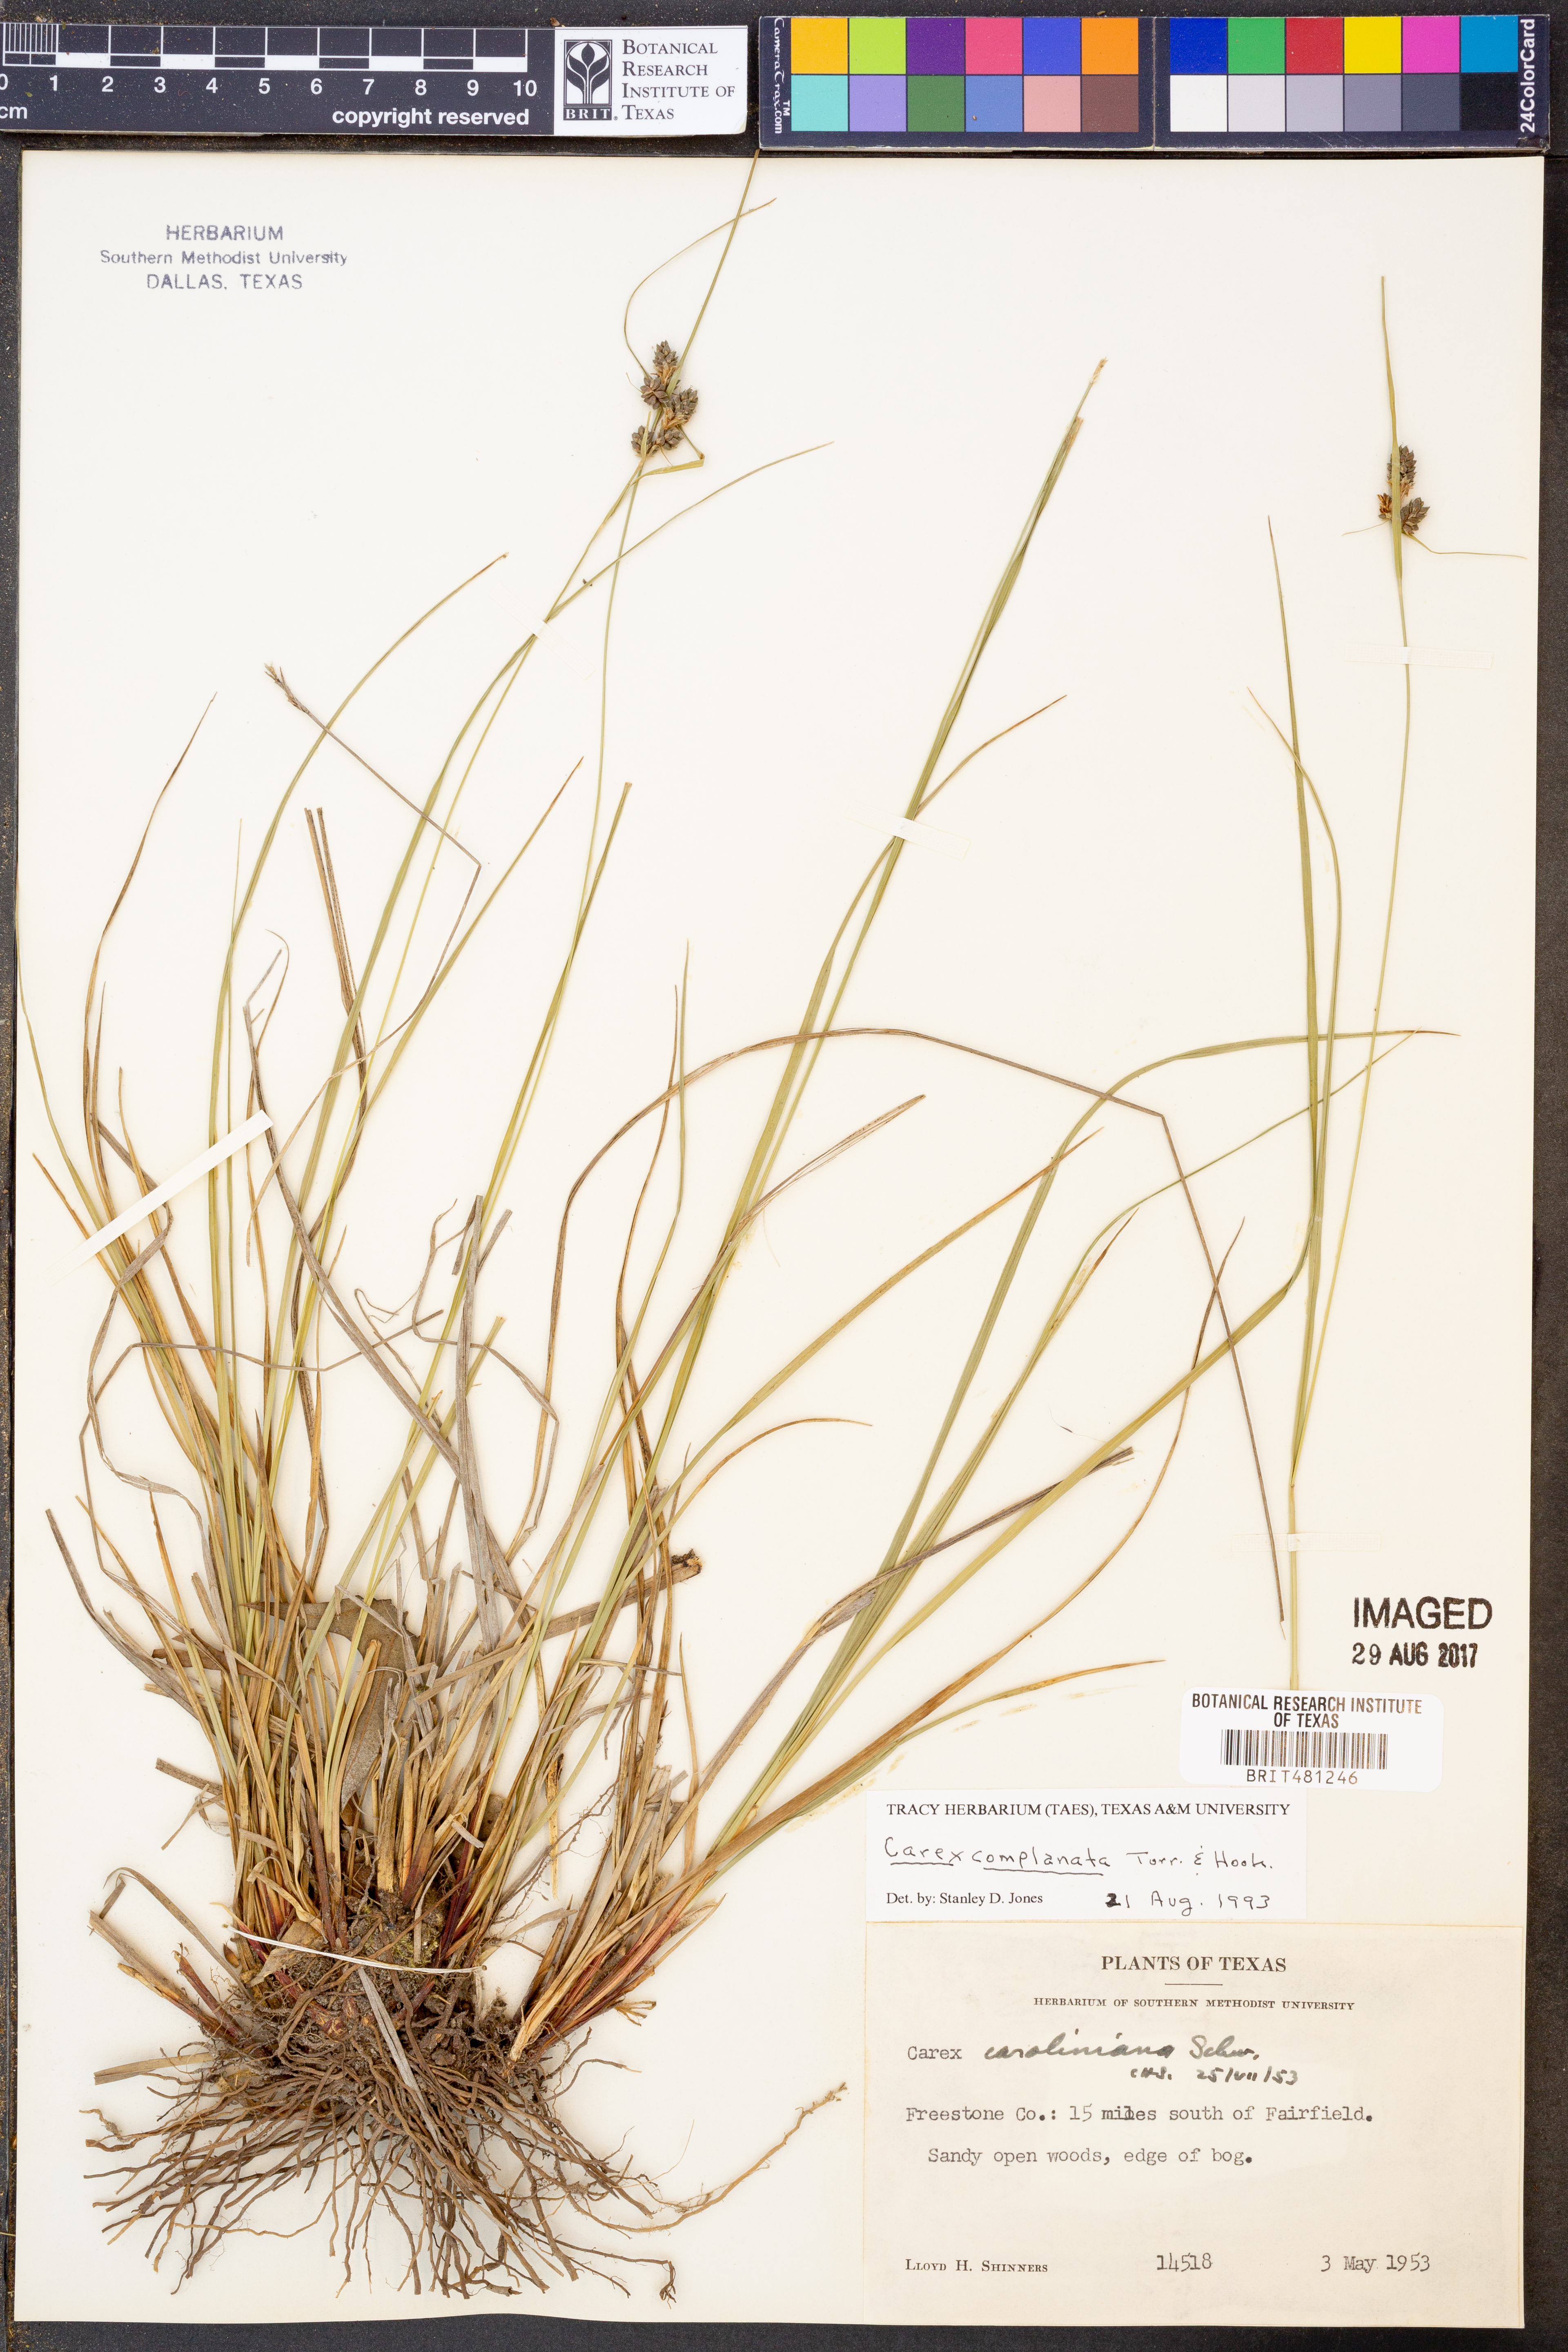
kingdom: Plantae
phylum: Tracheophyta
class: Liliopsida
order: Poales
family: Cyperaceae
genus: Carex
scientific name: Carex complanata
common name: Hirsute sedge
